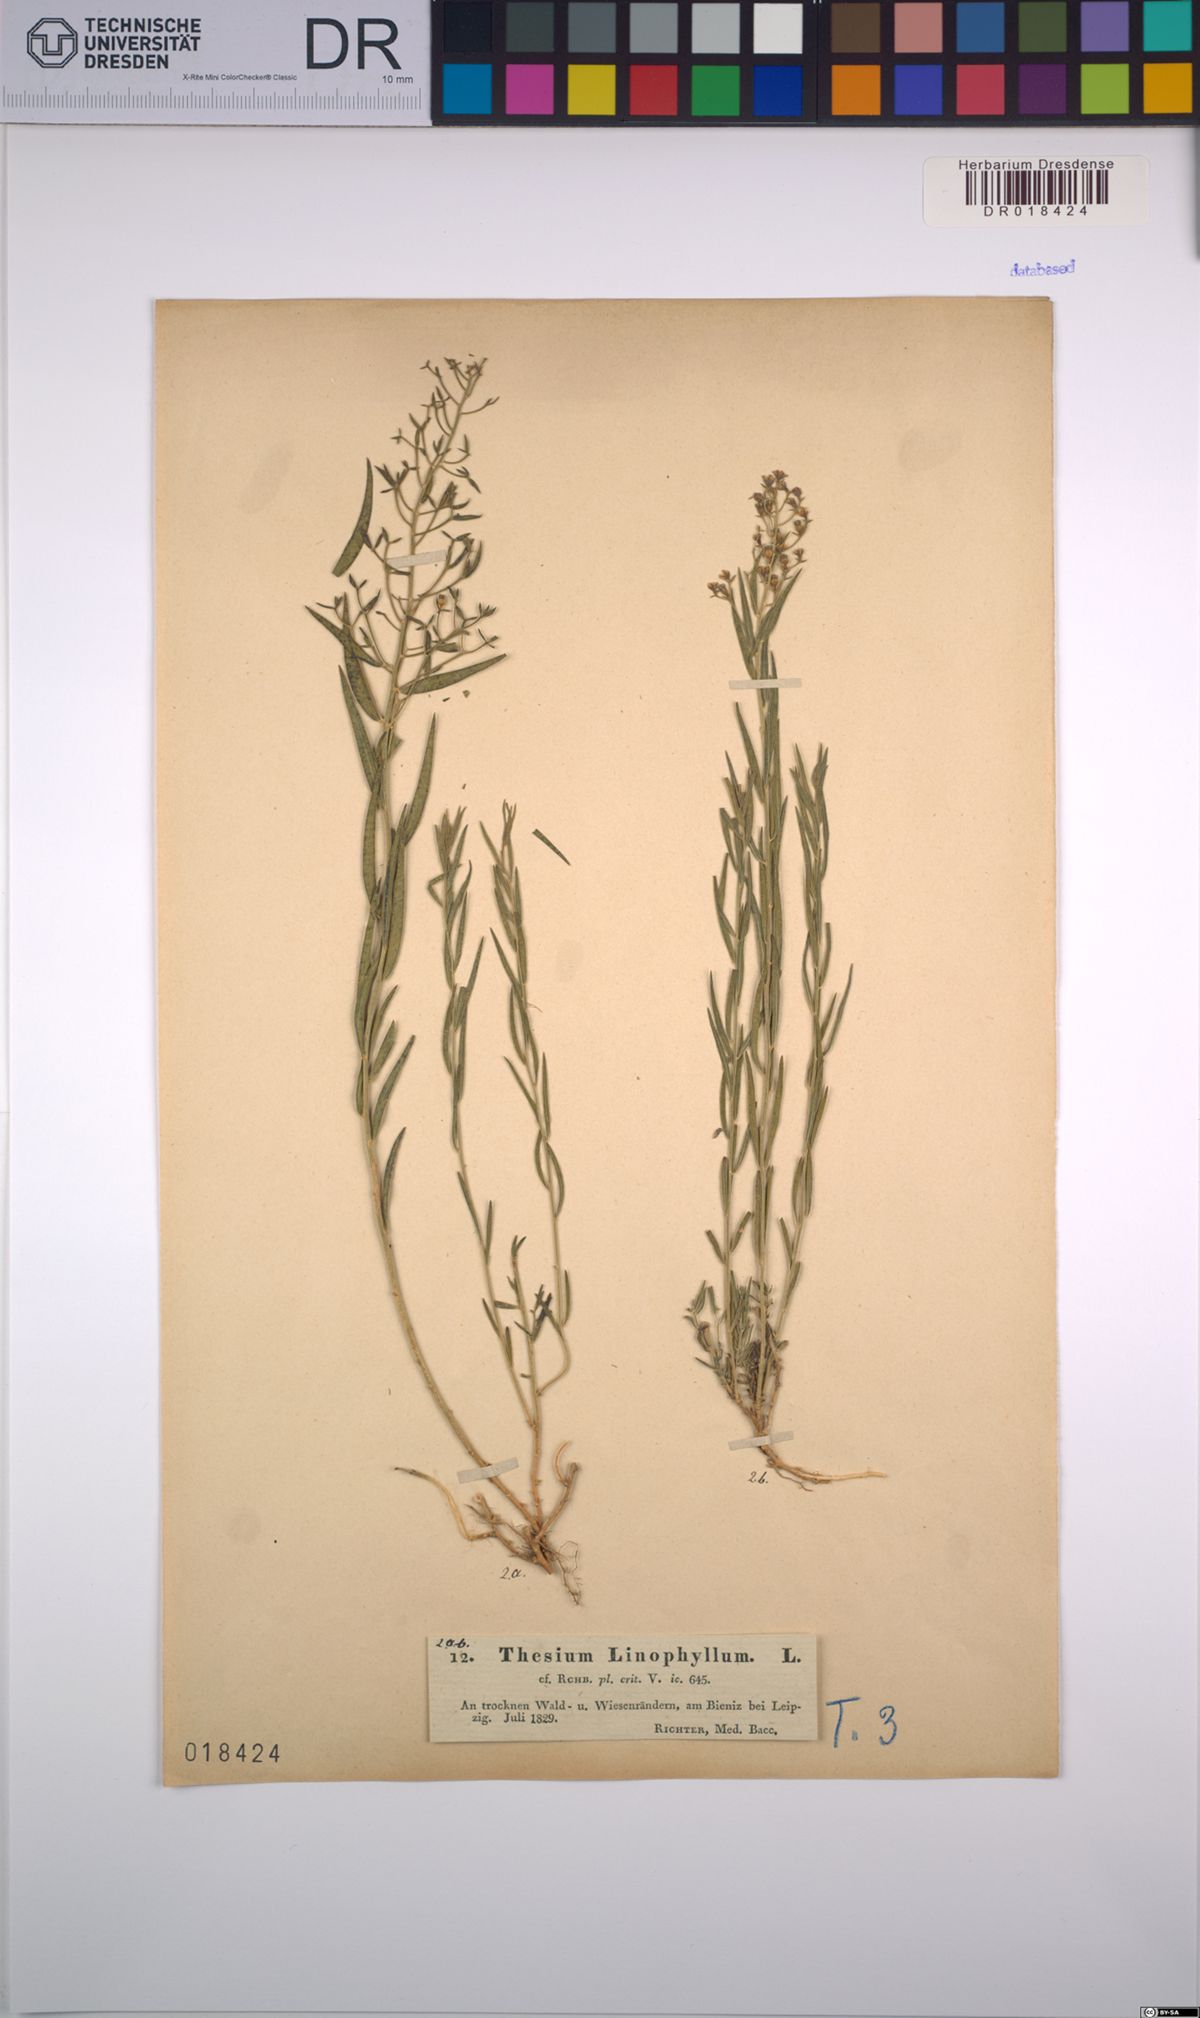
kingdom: Plantae
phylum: Tracheophyta
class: Magnoliopsida
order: Santalales
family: Thesiaceae
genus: Thesium
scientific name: Thesium linophyllon
